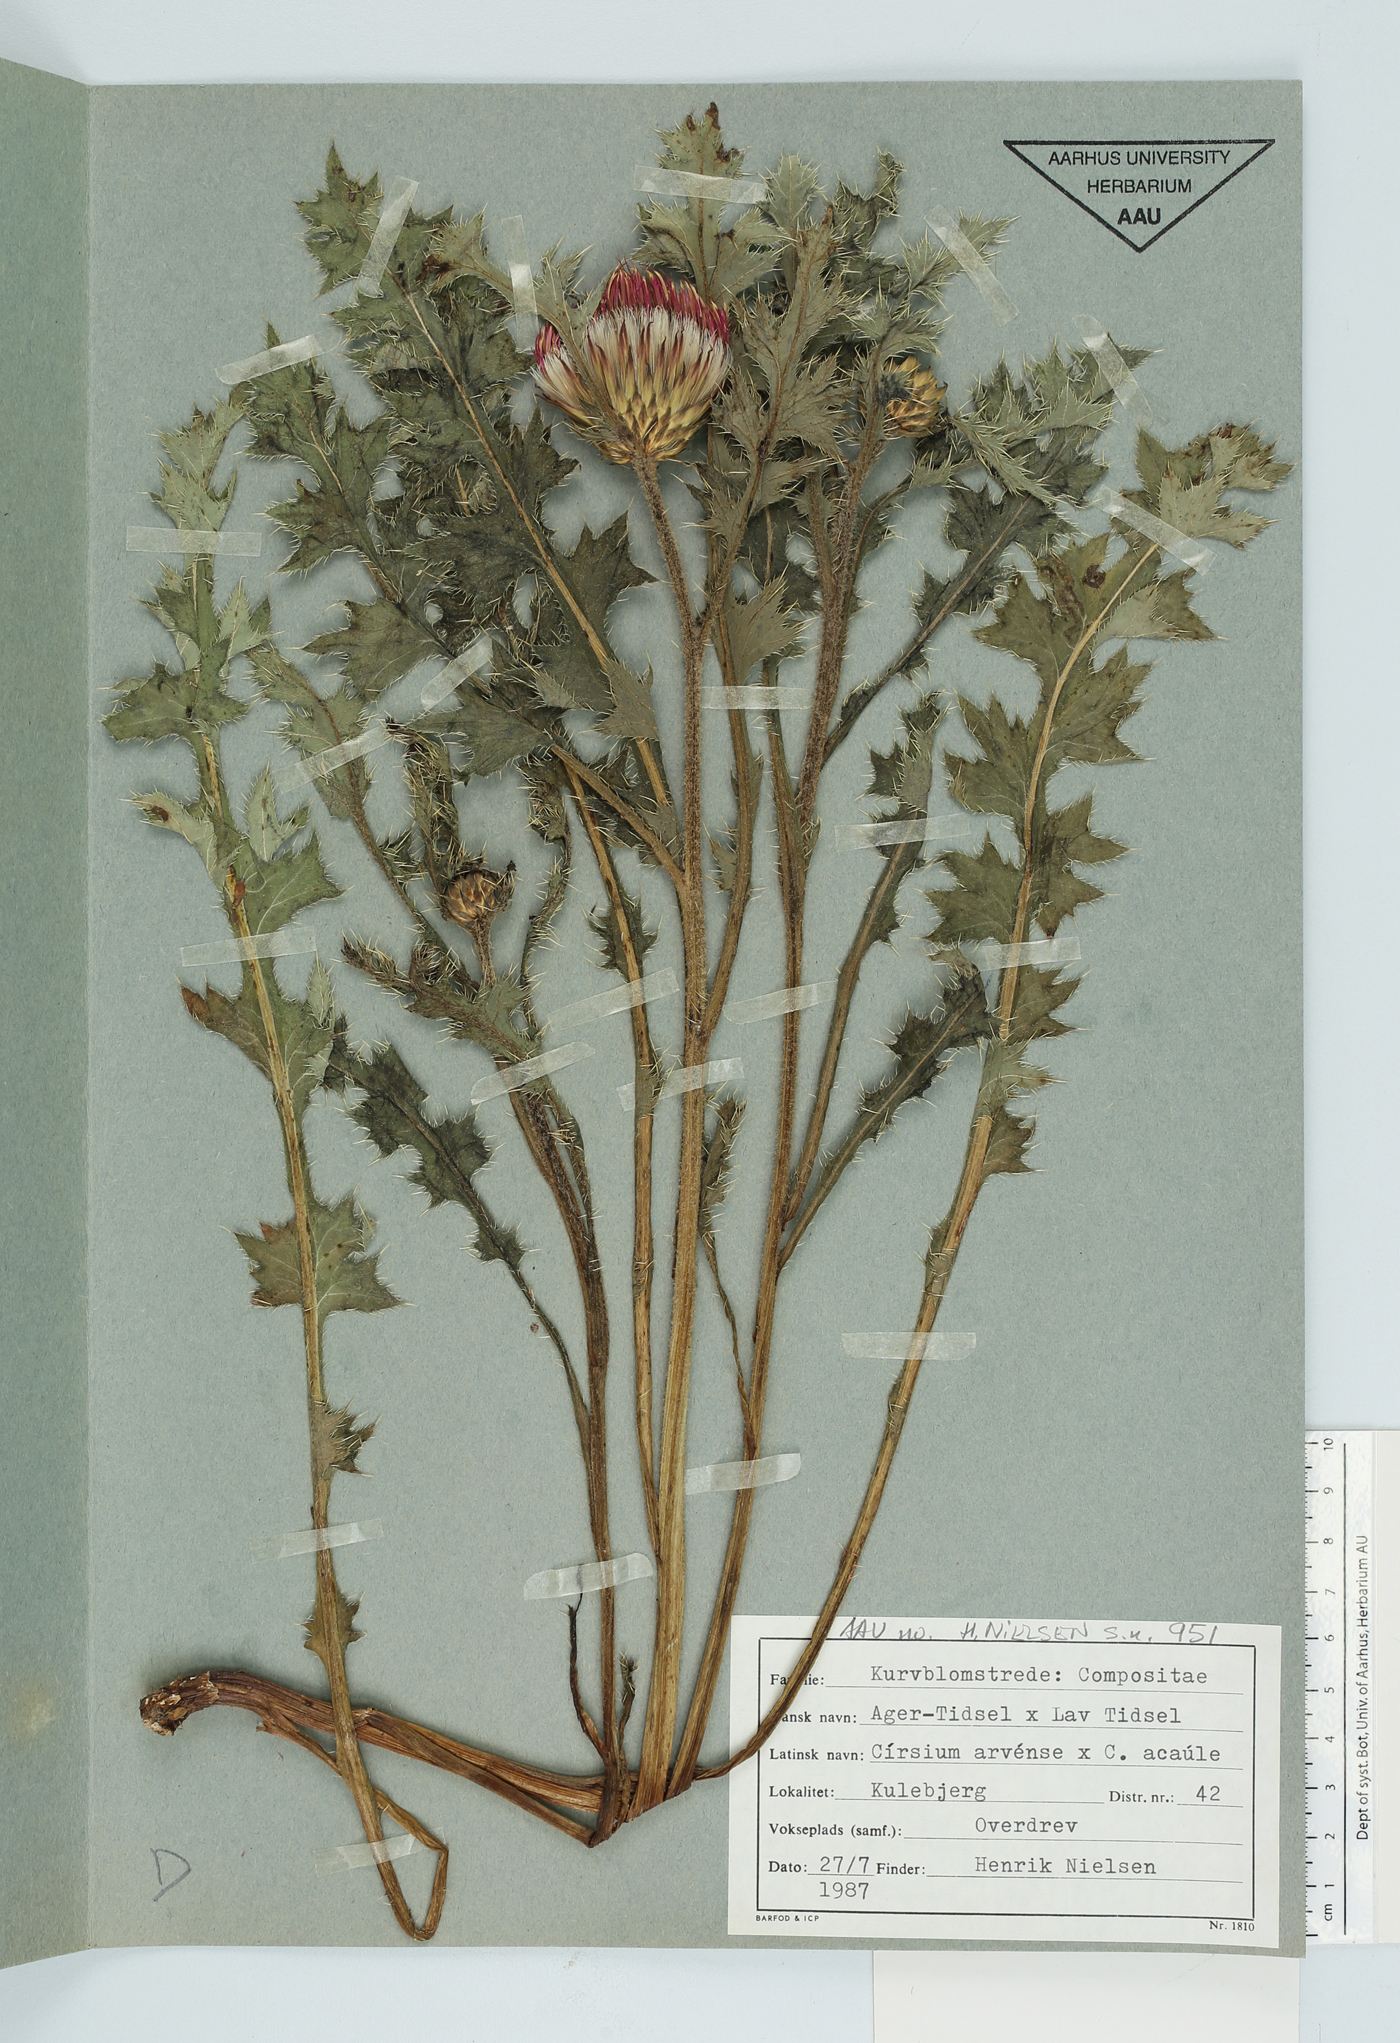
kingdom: Plantae
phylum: Tracheophyta
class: Magnoliopsida
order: Asterales
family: Asteraceae
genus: Cirsium
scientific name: Cirsium arvense
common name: Creeping thistle
